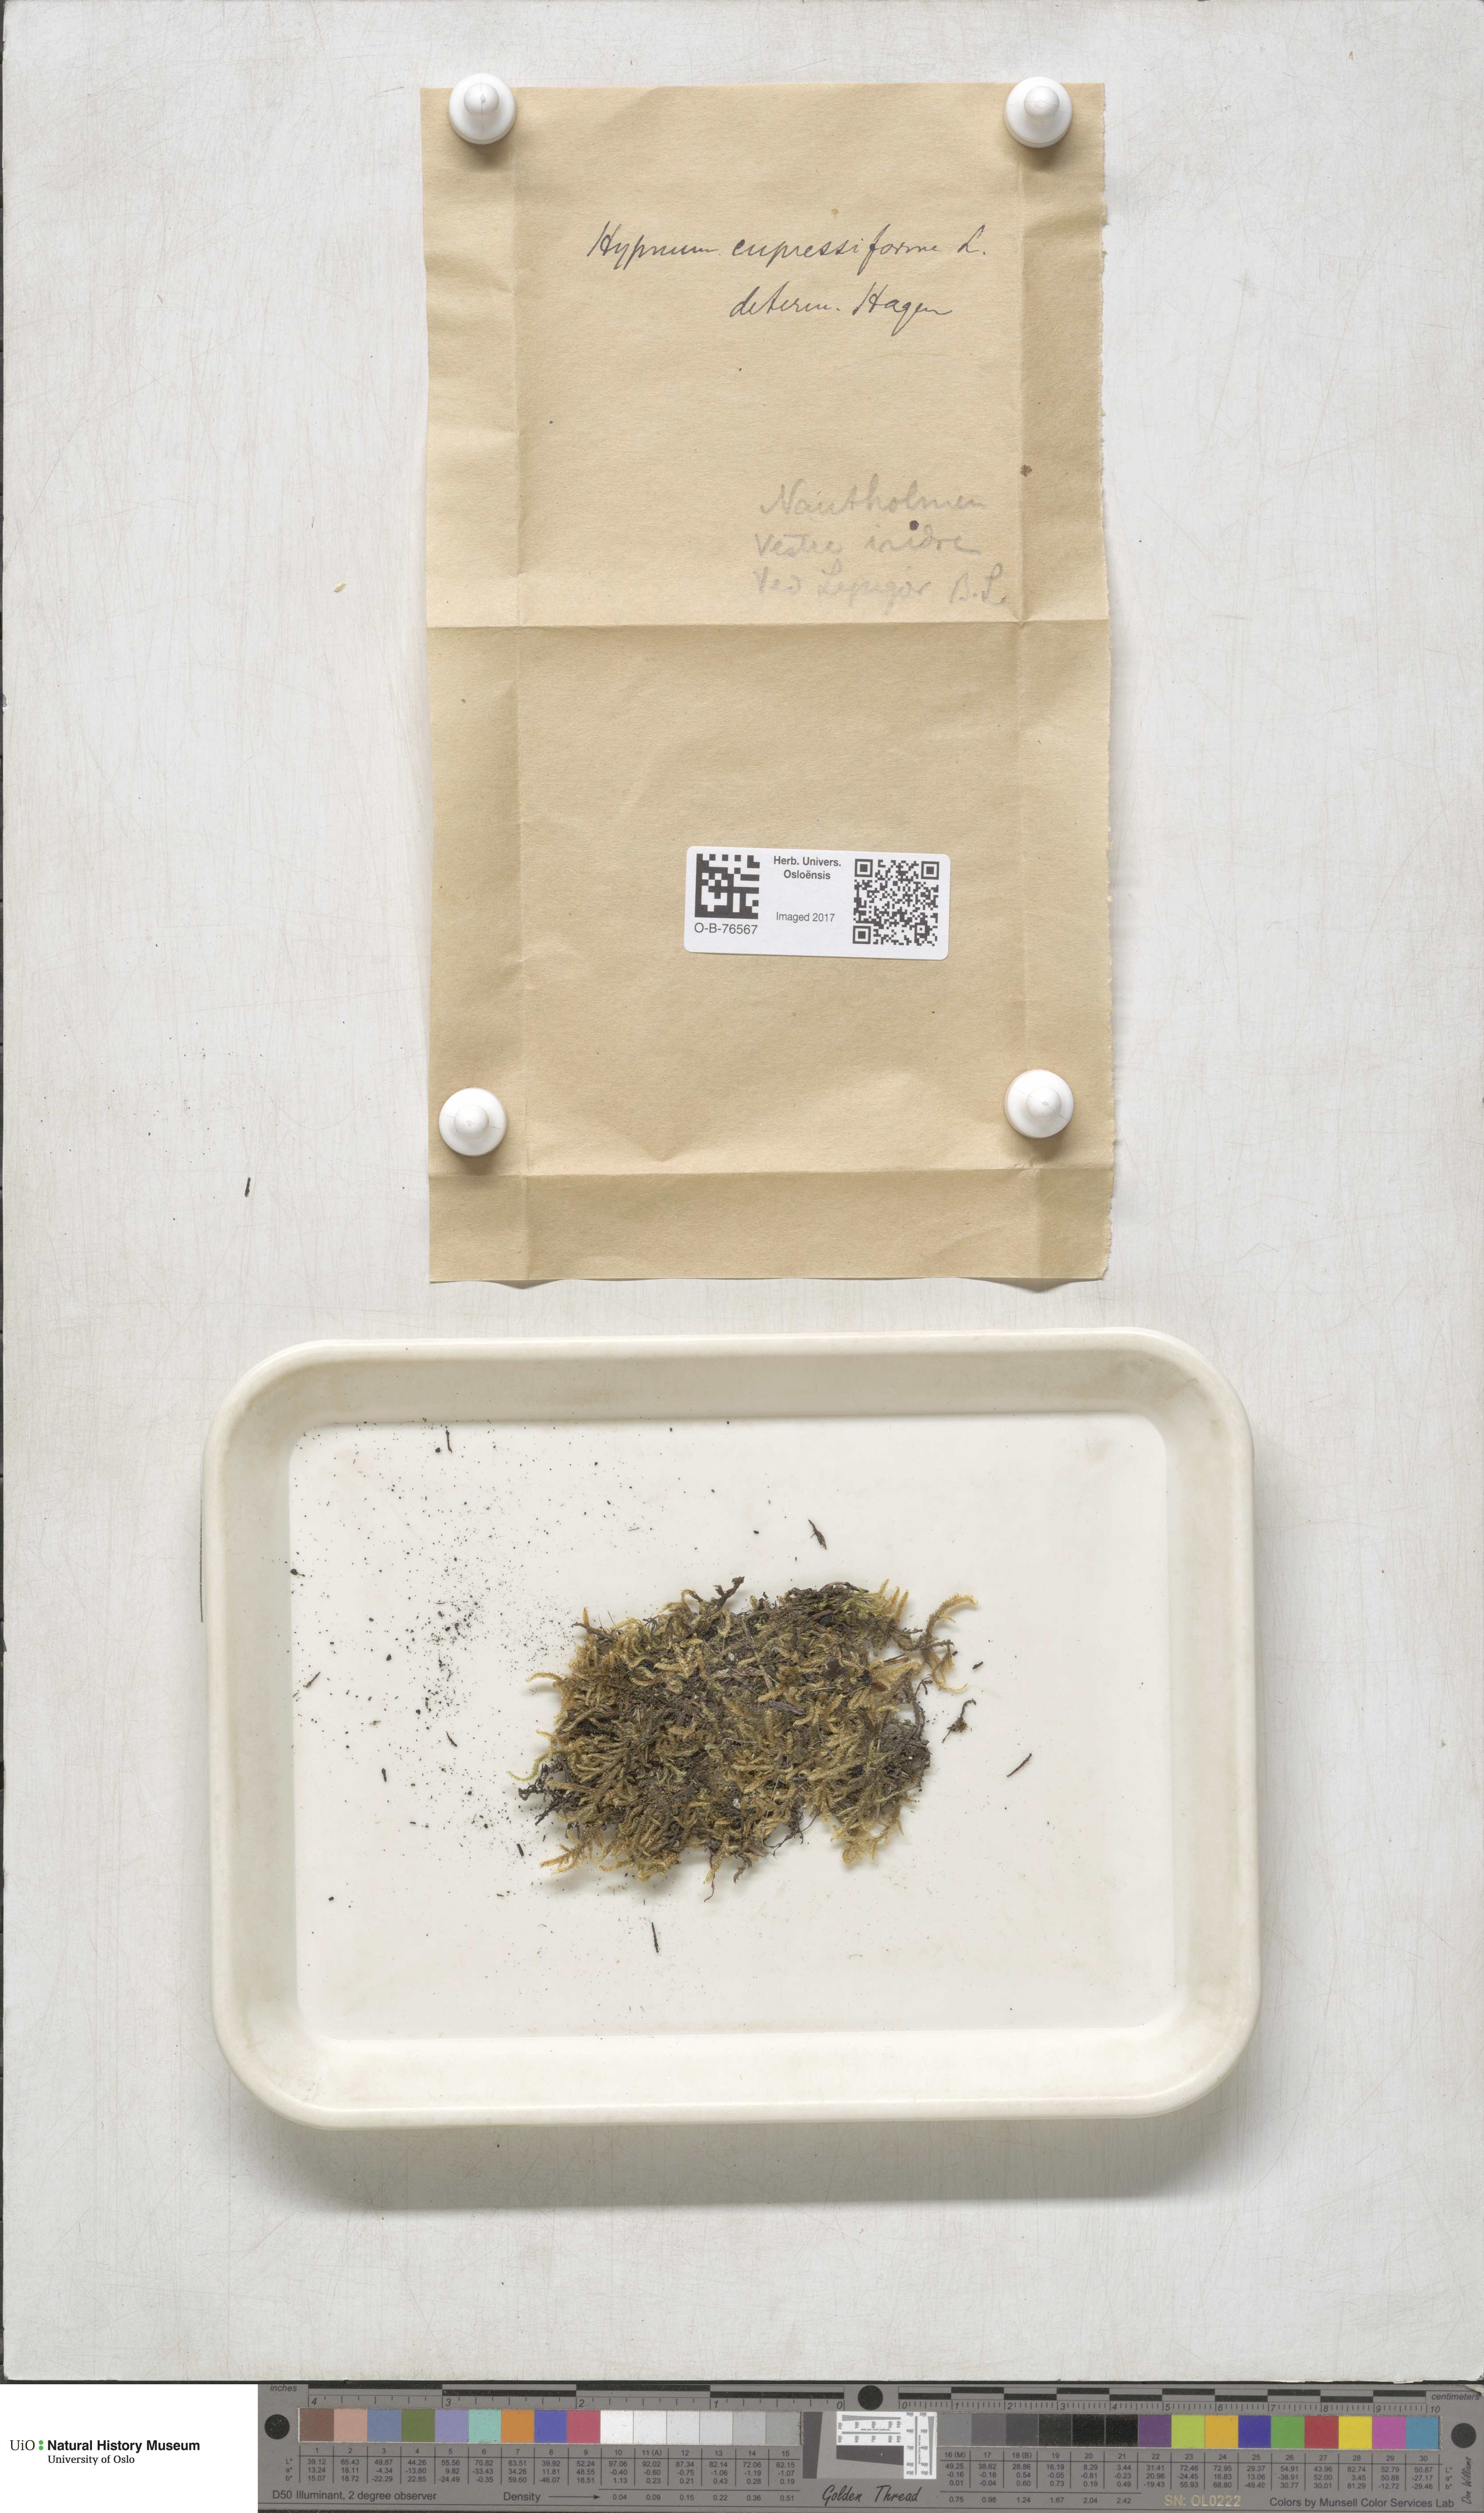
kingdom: Plantae
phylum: Bryophyta
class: Bryopsida
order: Hypnales
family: Hypnaceae
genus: Hypnum
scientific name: Hypnum cupressiforme
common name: Cypress-leaved plait-moss
